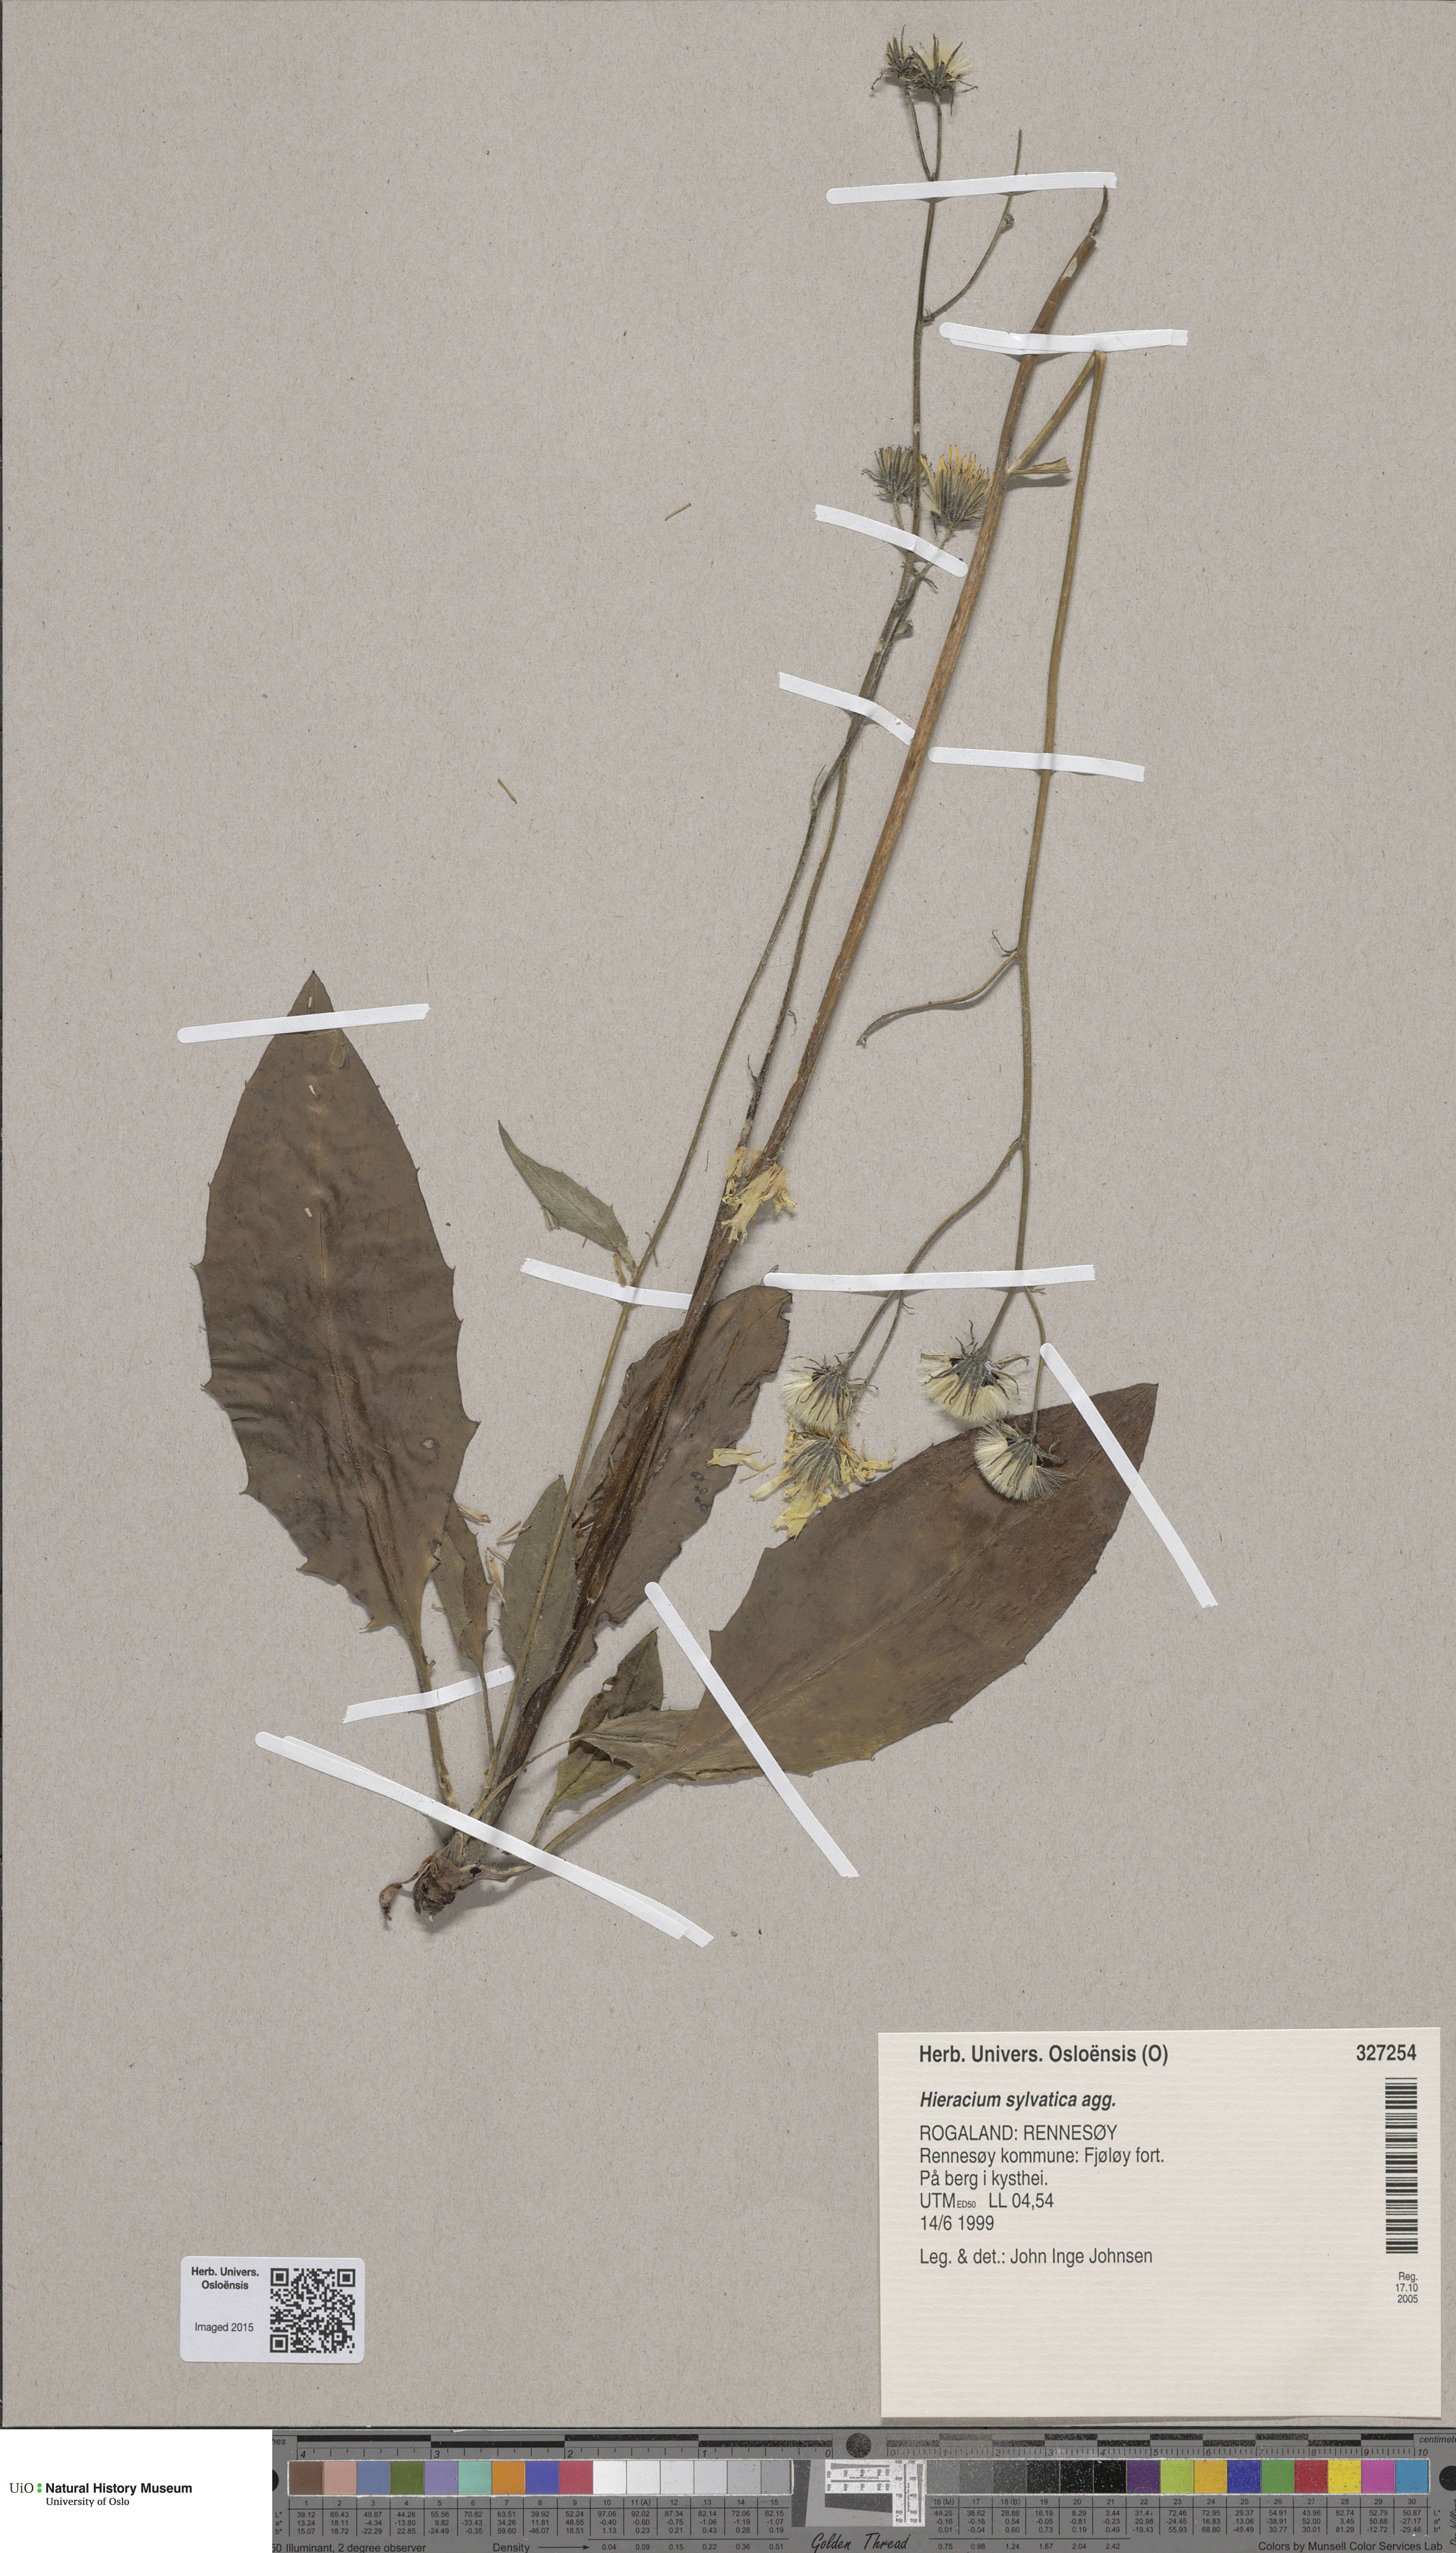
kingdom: Plantae
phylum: Tracheophyta
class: Magnoliopsida
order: Asterales
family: Asteraceae
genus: Hieracium
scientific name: Hieracium
